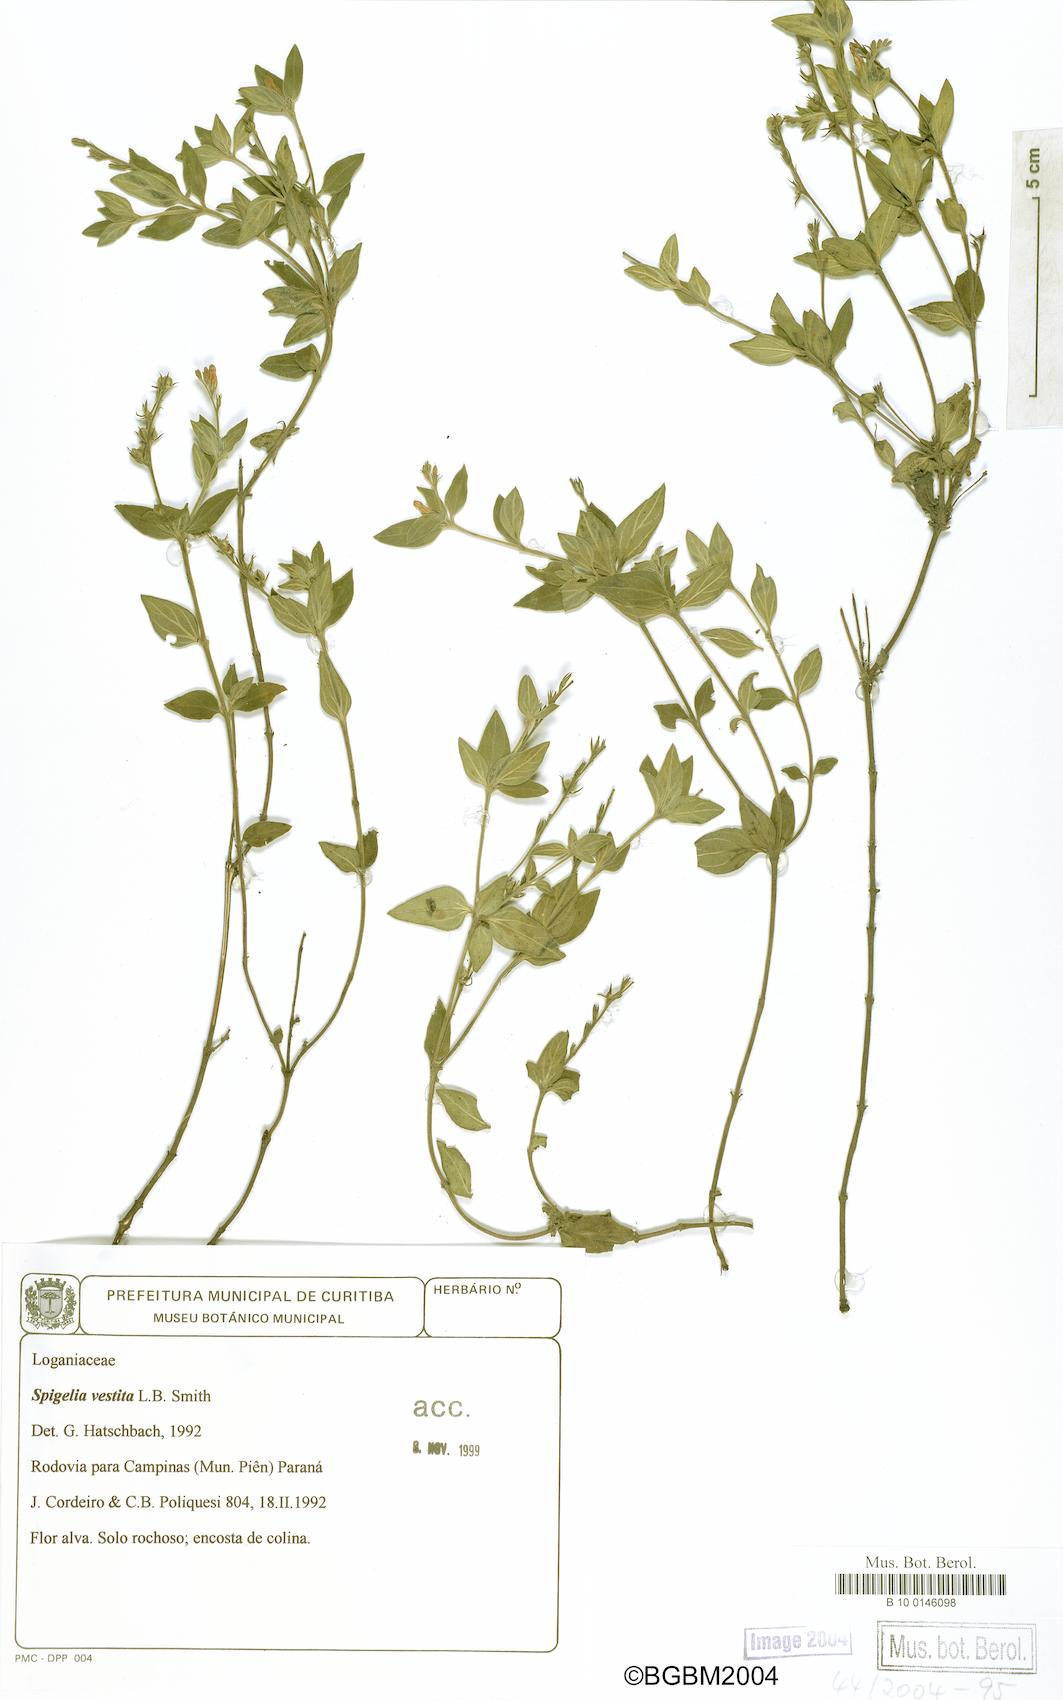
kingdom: Plantae
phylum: Tracheophyta
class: Magnoliopsida
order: Gentianales
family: Loganiaceae
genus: Spigelia
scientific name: Spigelia vestita
